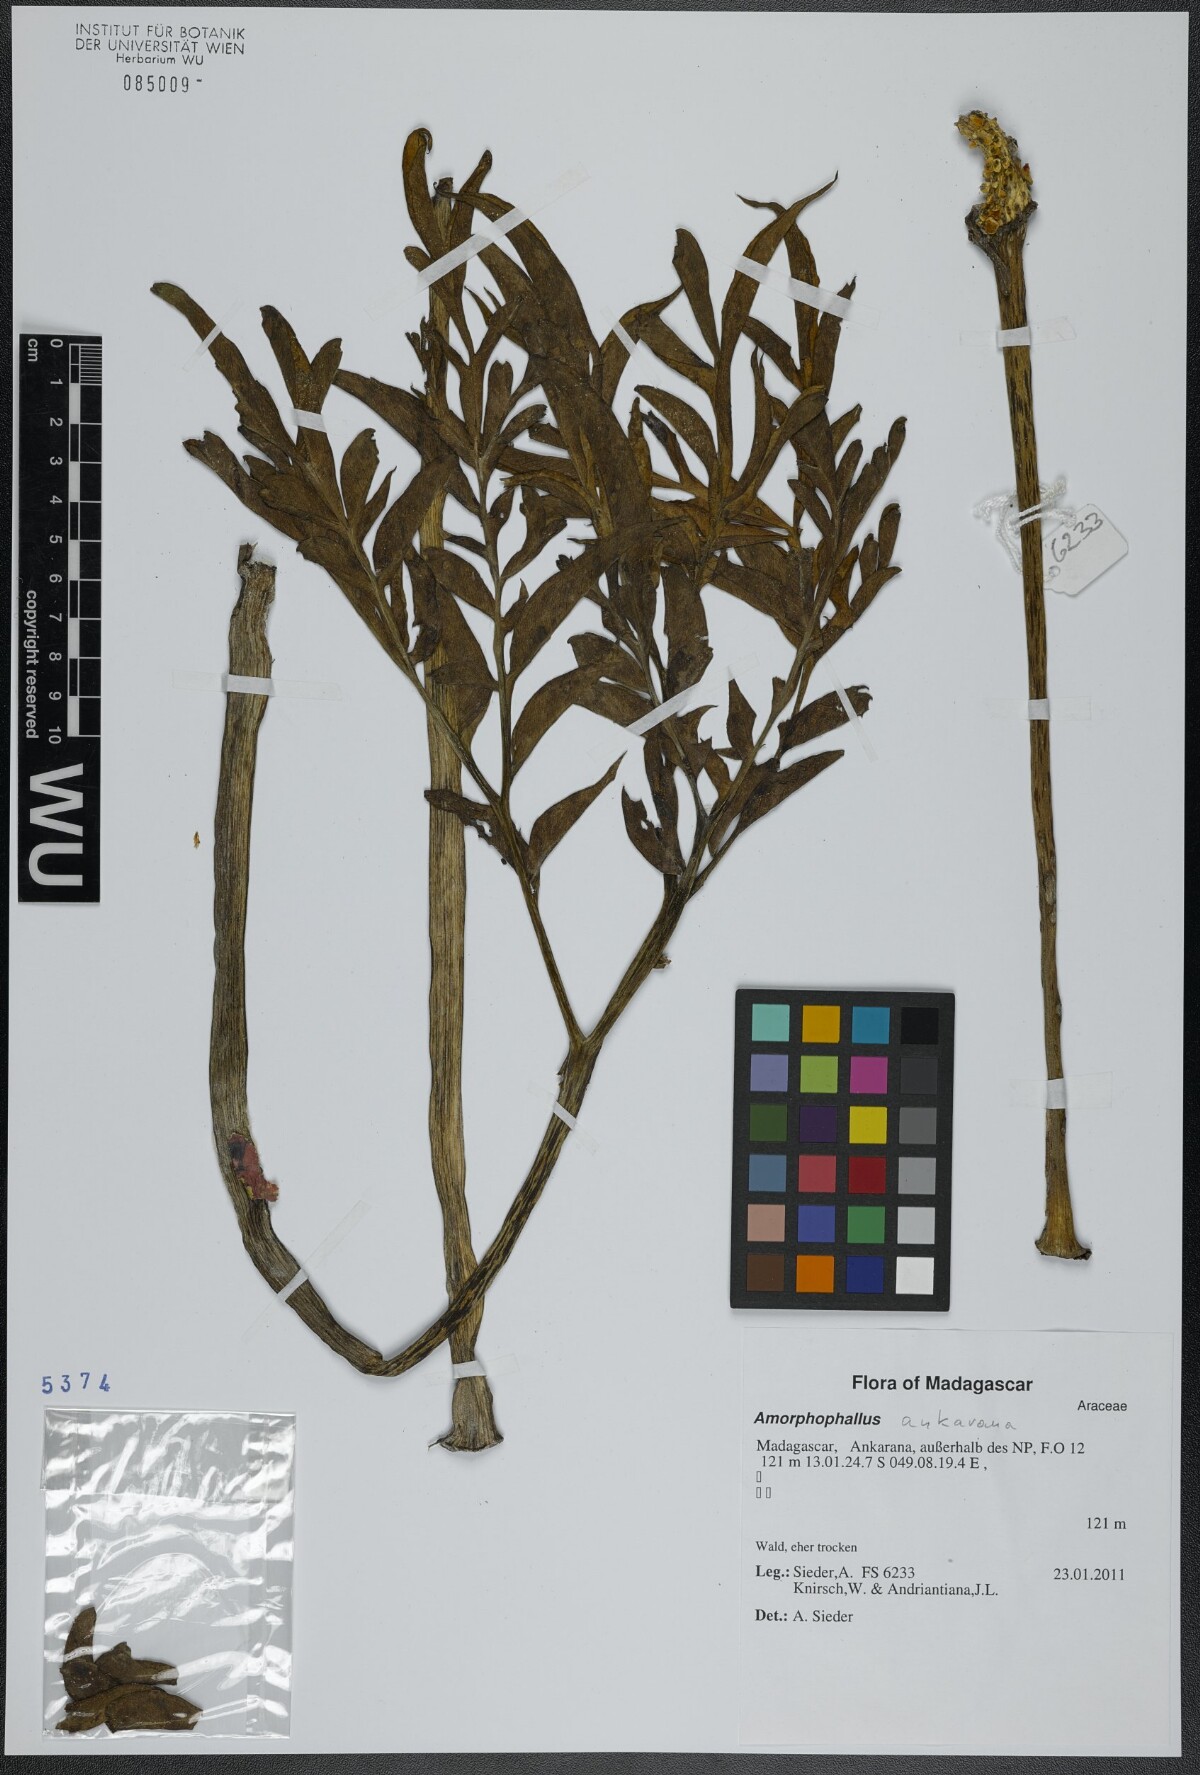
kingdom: Plantae
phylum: Tracheophyta
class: Liliopsida
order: Alismatales
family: Araceae
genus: Amorphophallus
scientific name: Amorphophallus ankarana
